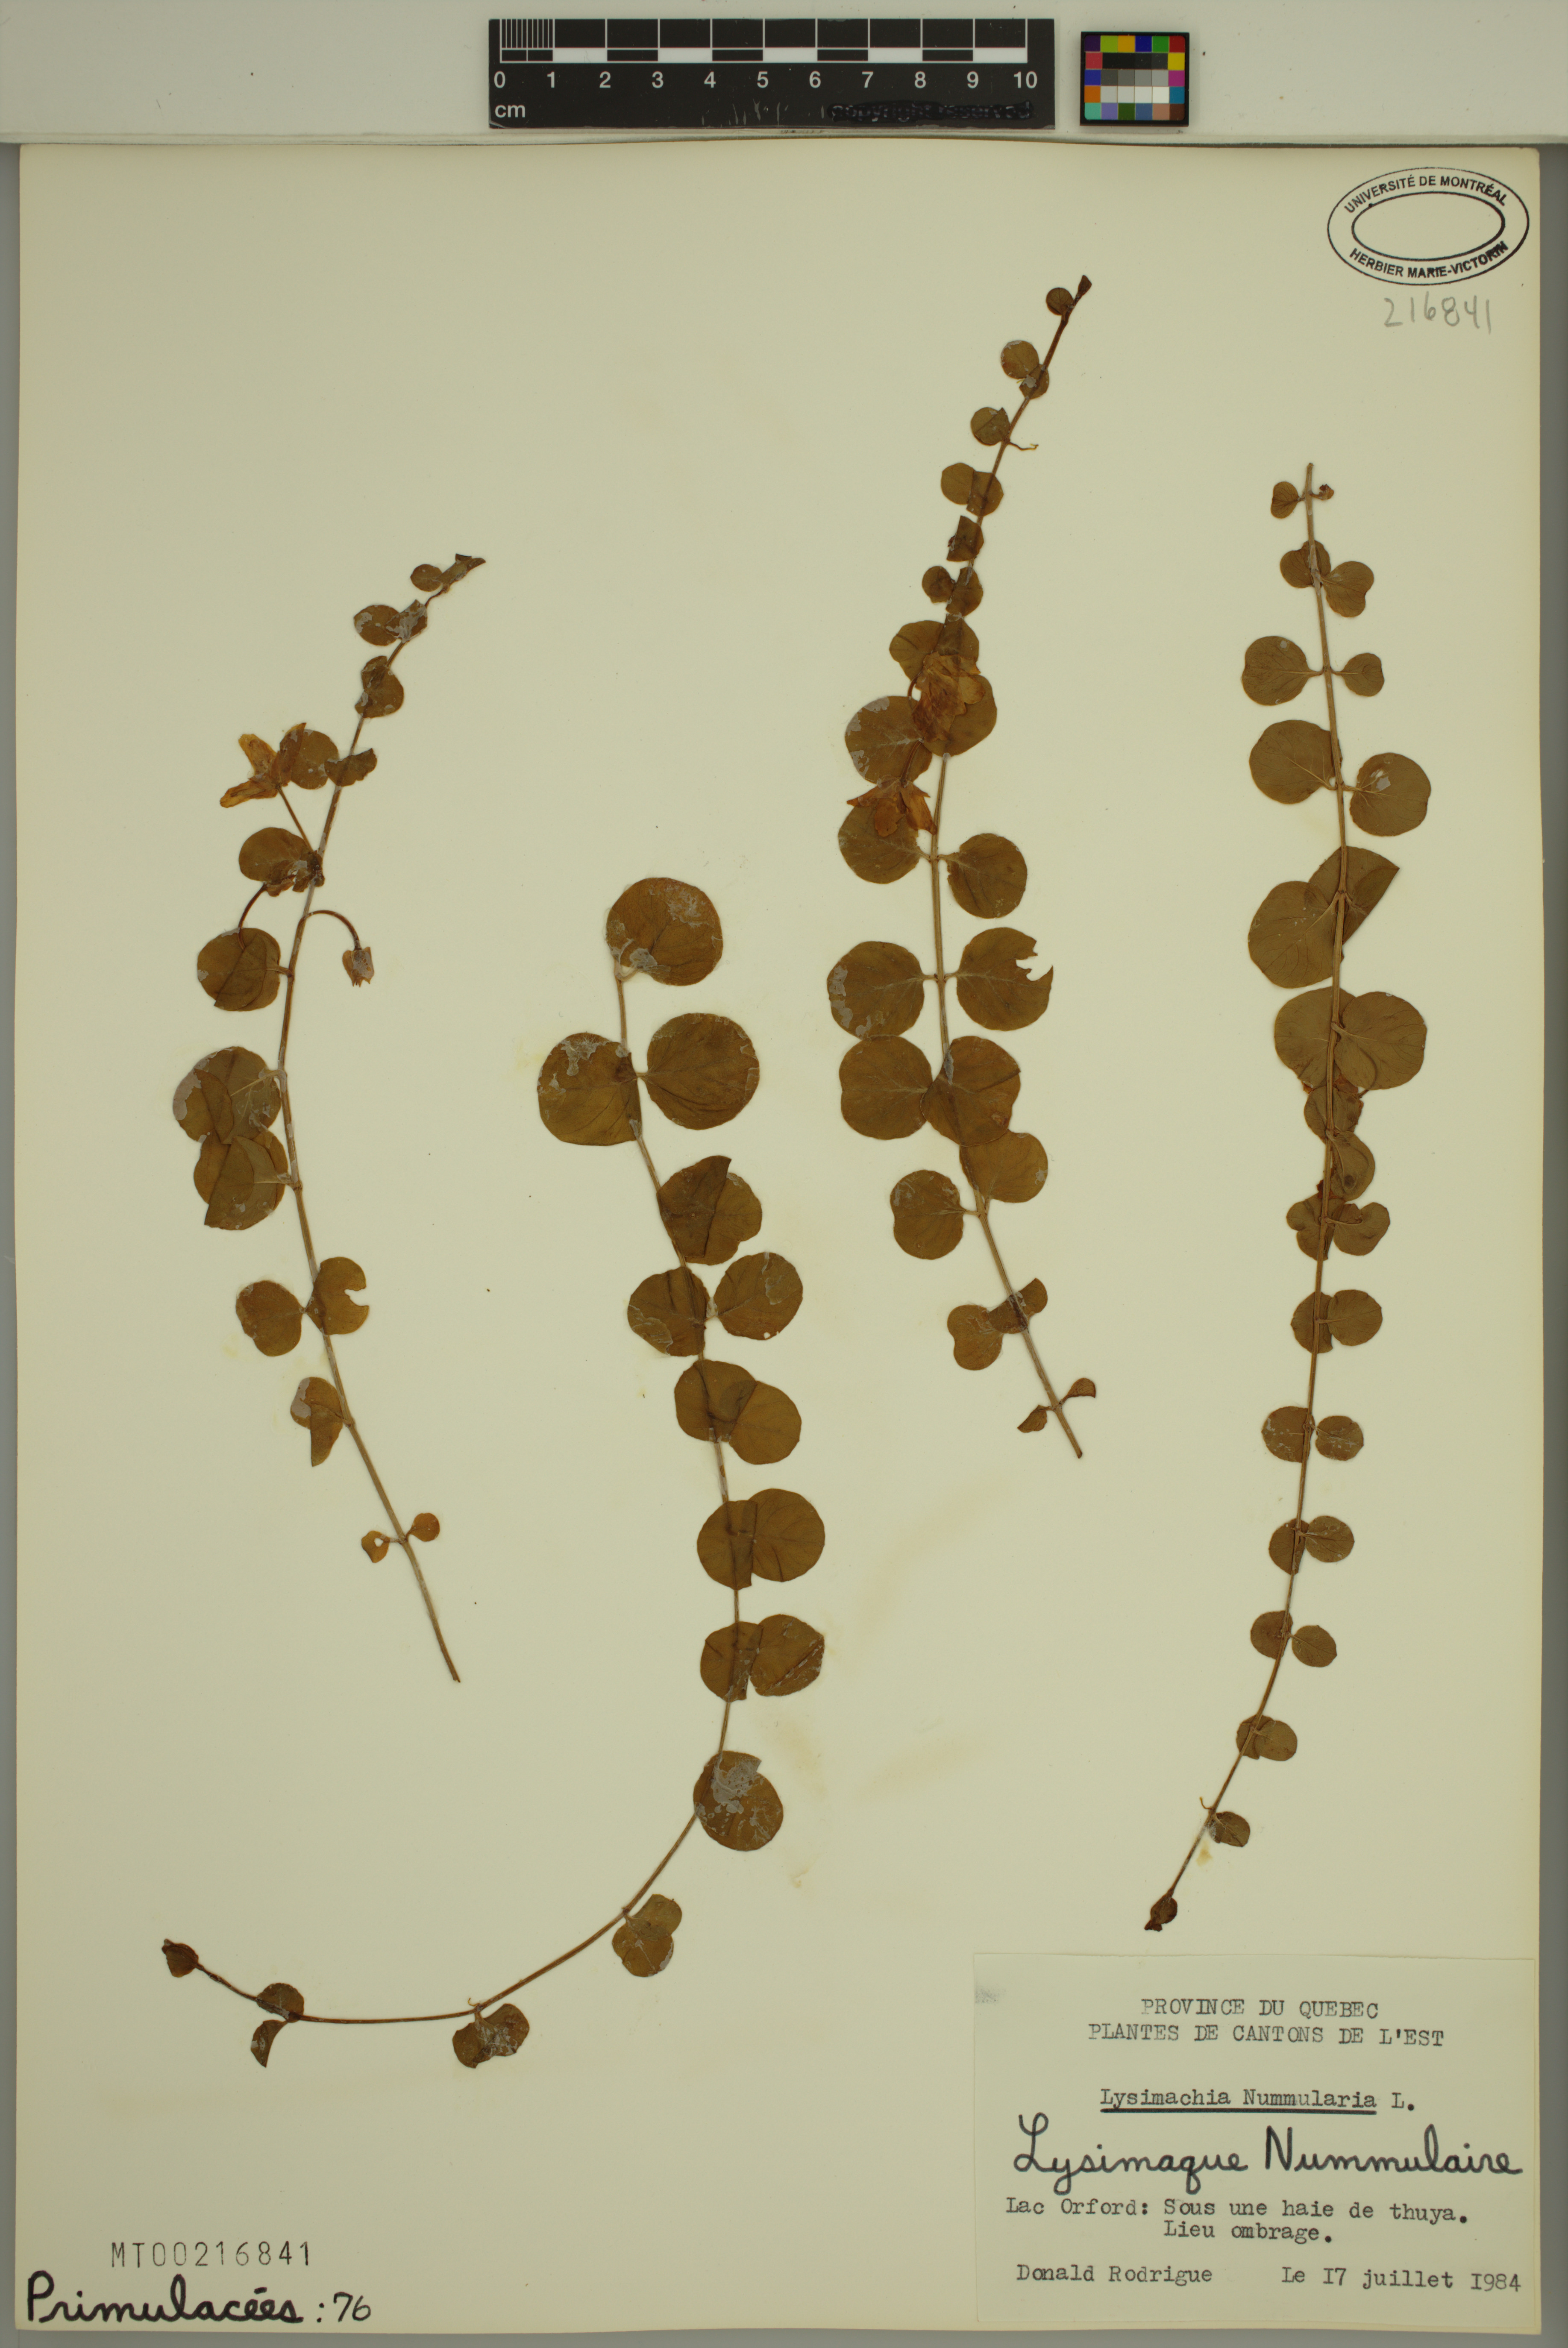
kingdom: Plantae
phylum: Tracheophyta
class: Magnoliopsida
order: Ericales
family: Primulaceae
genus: Lysimachia
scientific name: Lysimachia nummularia
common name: Moneywort
